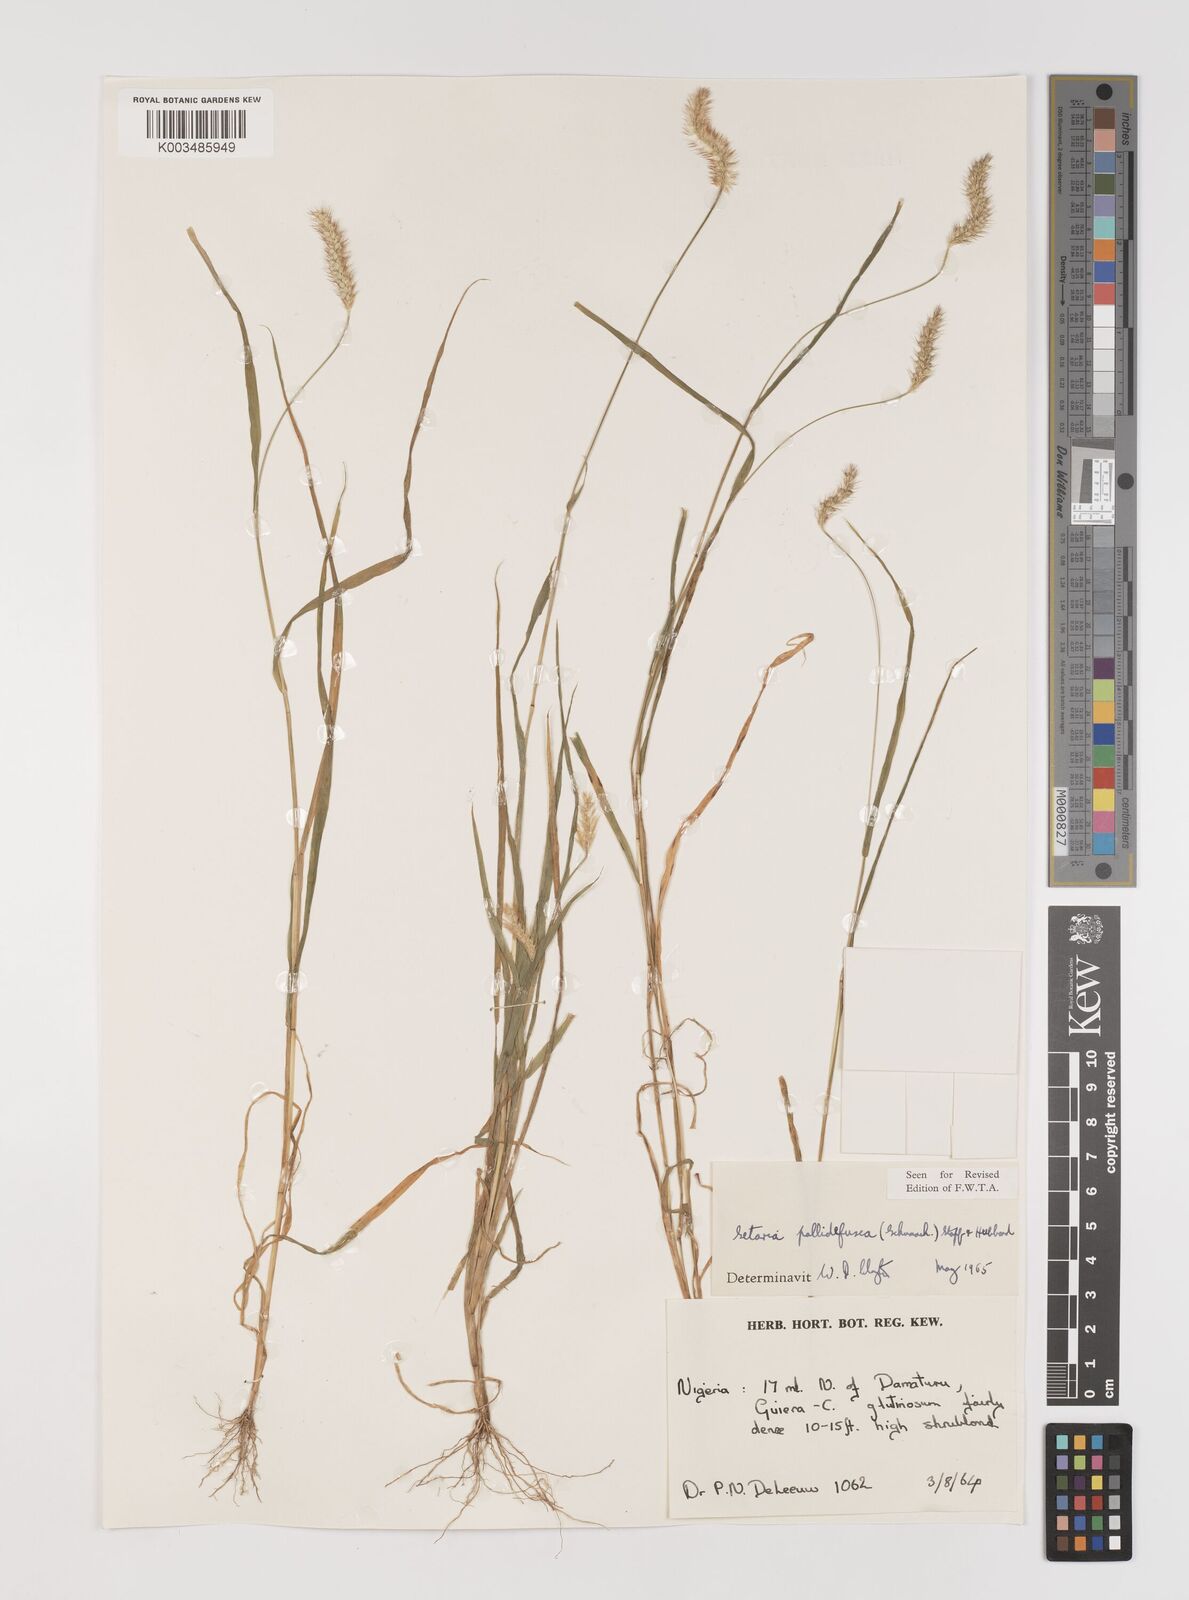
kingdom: Plantae
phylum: Tracheophyta
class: Liliopsida
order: Poales
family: Poaceae
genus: Setaria
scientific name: Setaria pumila
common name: Yellow bristle-grass
